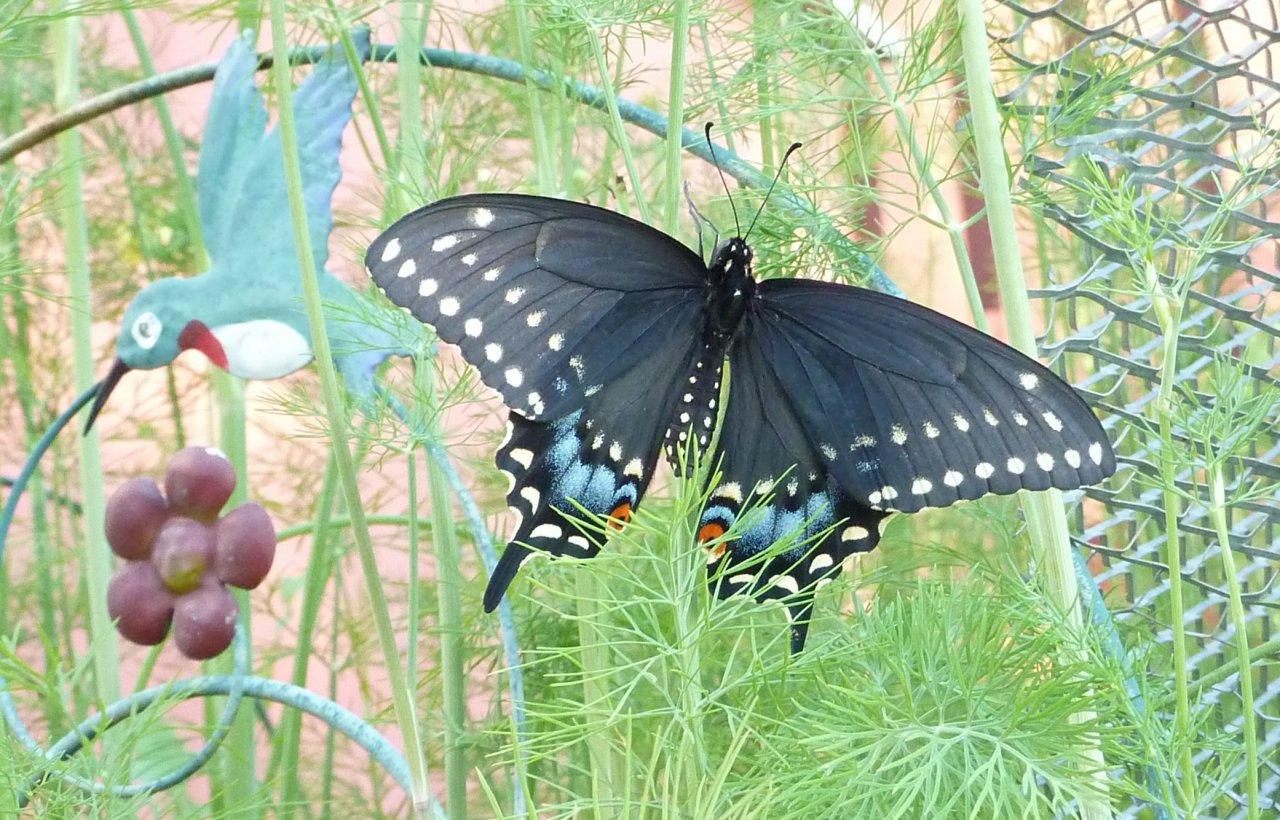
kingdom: Animalia
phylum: Arthropoda
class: Insecta
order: Lepidoptera
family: Papilionidae
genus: Papilio
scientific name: Papilio polyxenes
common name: Black Swallowtail
